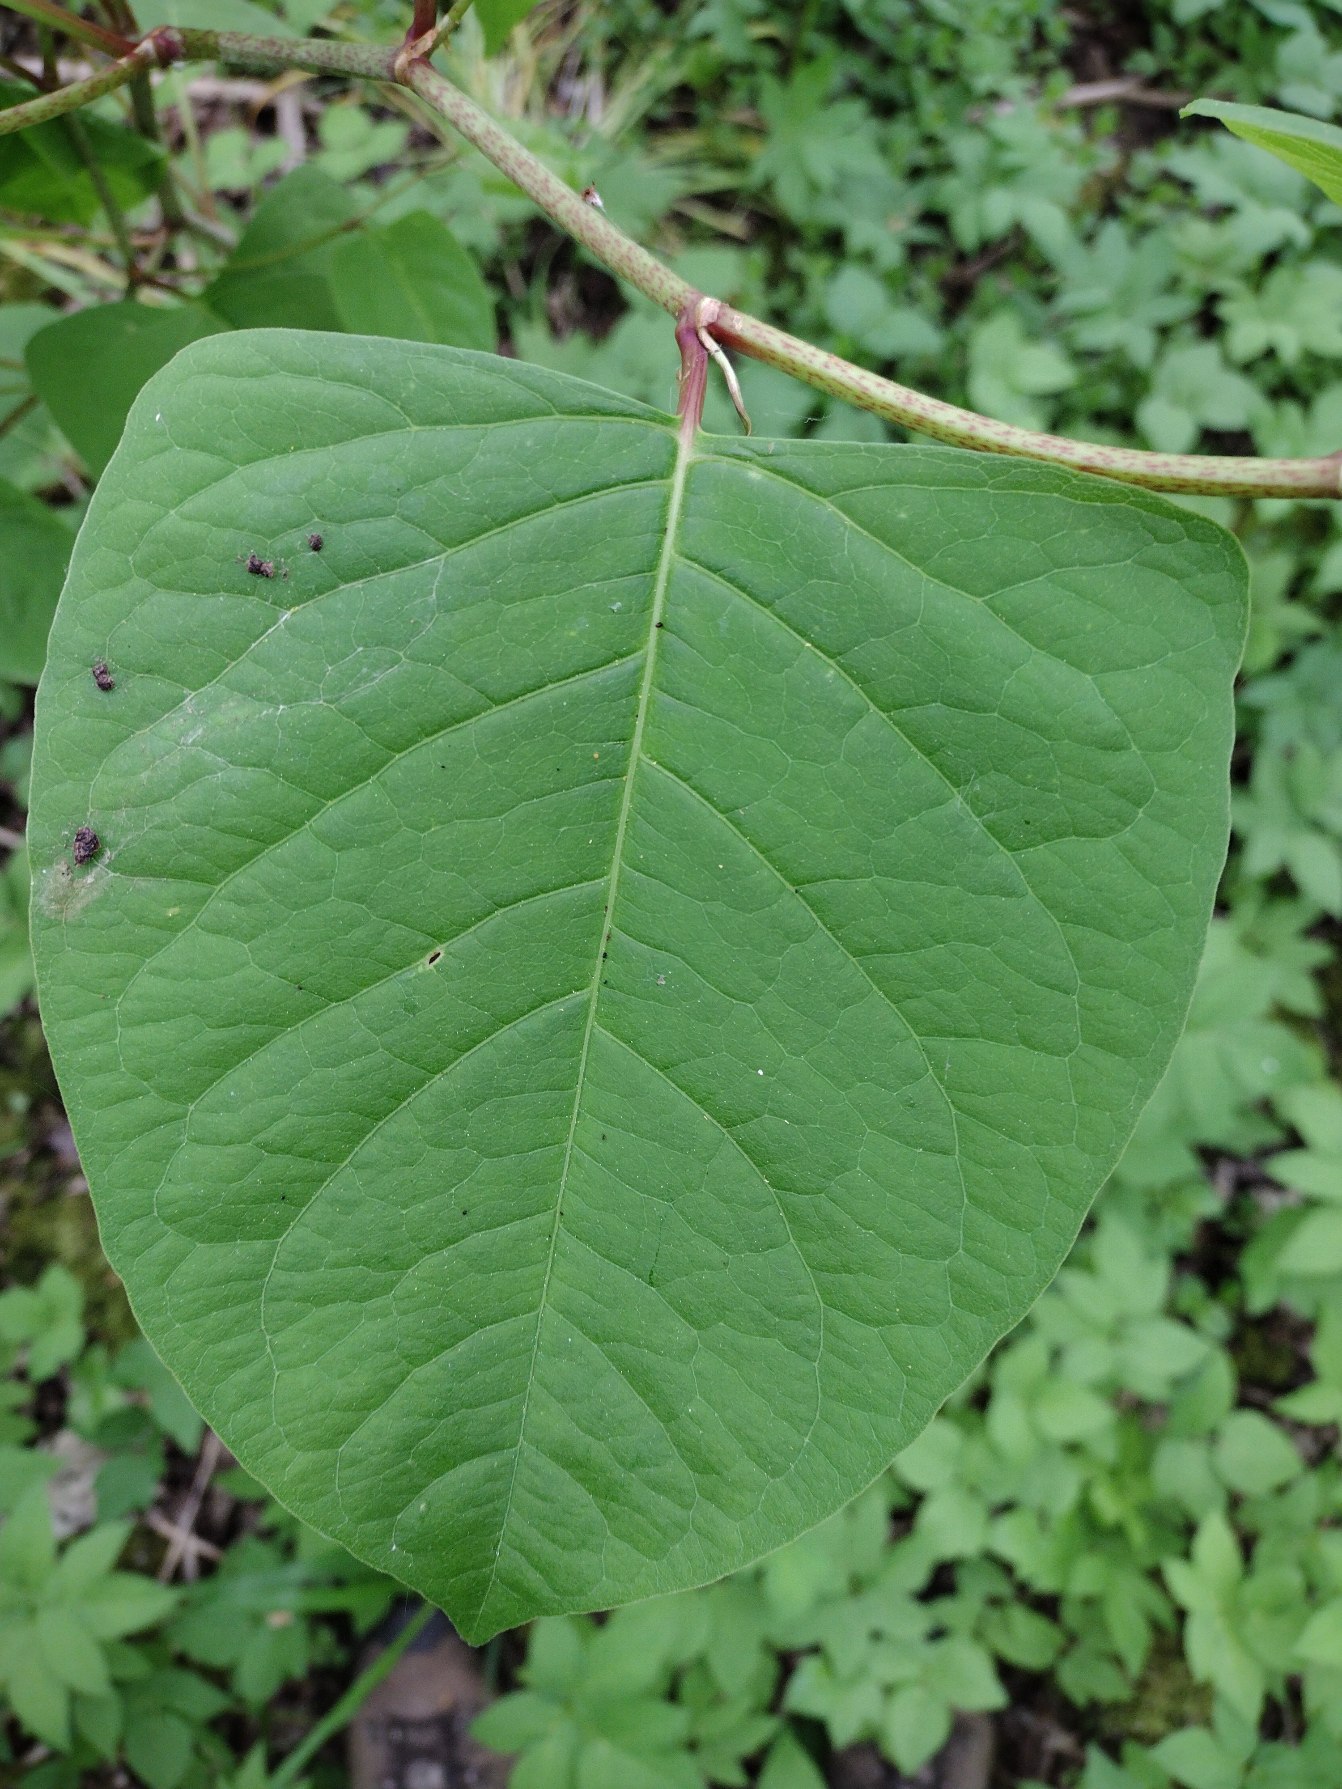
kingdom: Plantae
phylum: Tracheophyta
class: Magnoliopsida
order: Caryophyllales
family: Polygonaceae
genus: Reynoutria
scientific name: Reynoutria japonica
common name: Japan-pileurt
